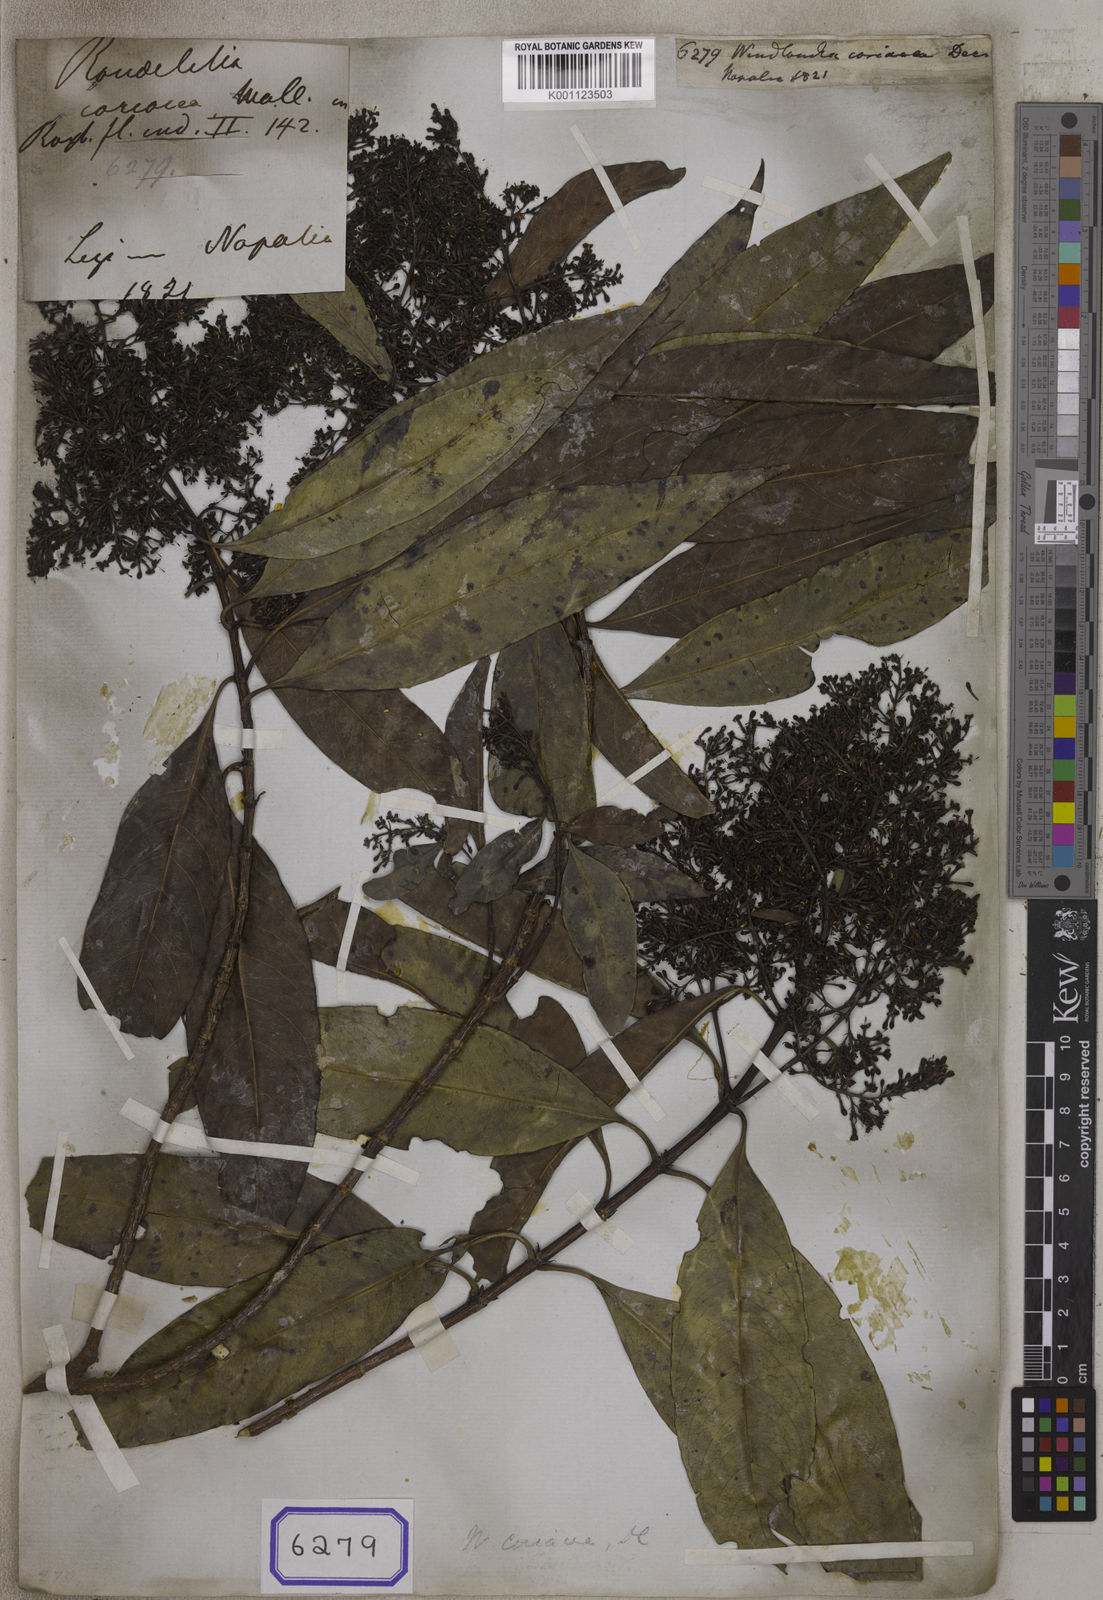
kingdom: Plantae
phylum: Tracheophyta
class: Magnoliopsida
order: Gentianales
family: Rubiaceae
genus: Wendlandia
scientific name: Wendlandia coriacea
